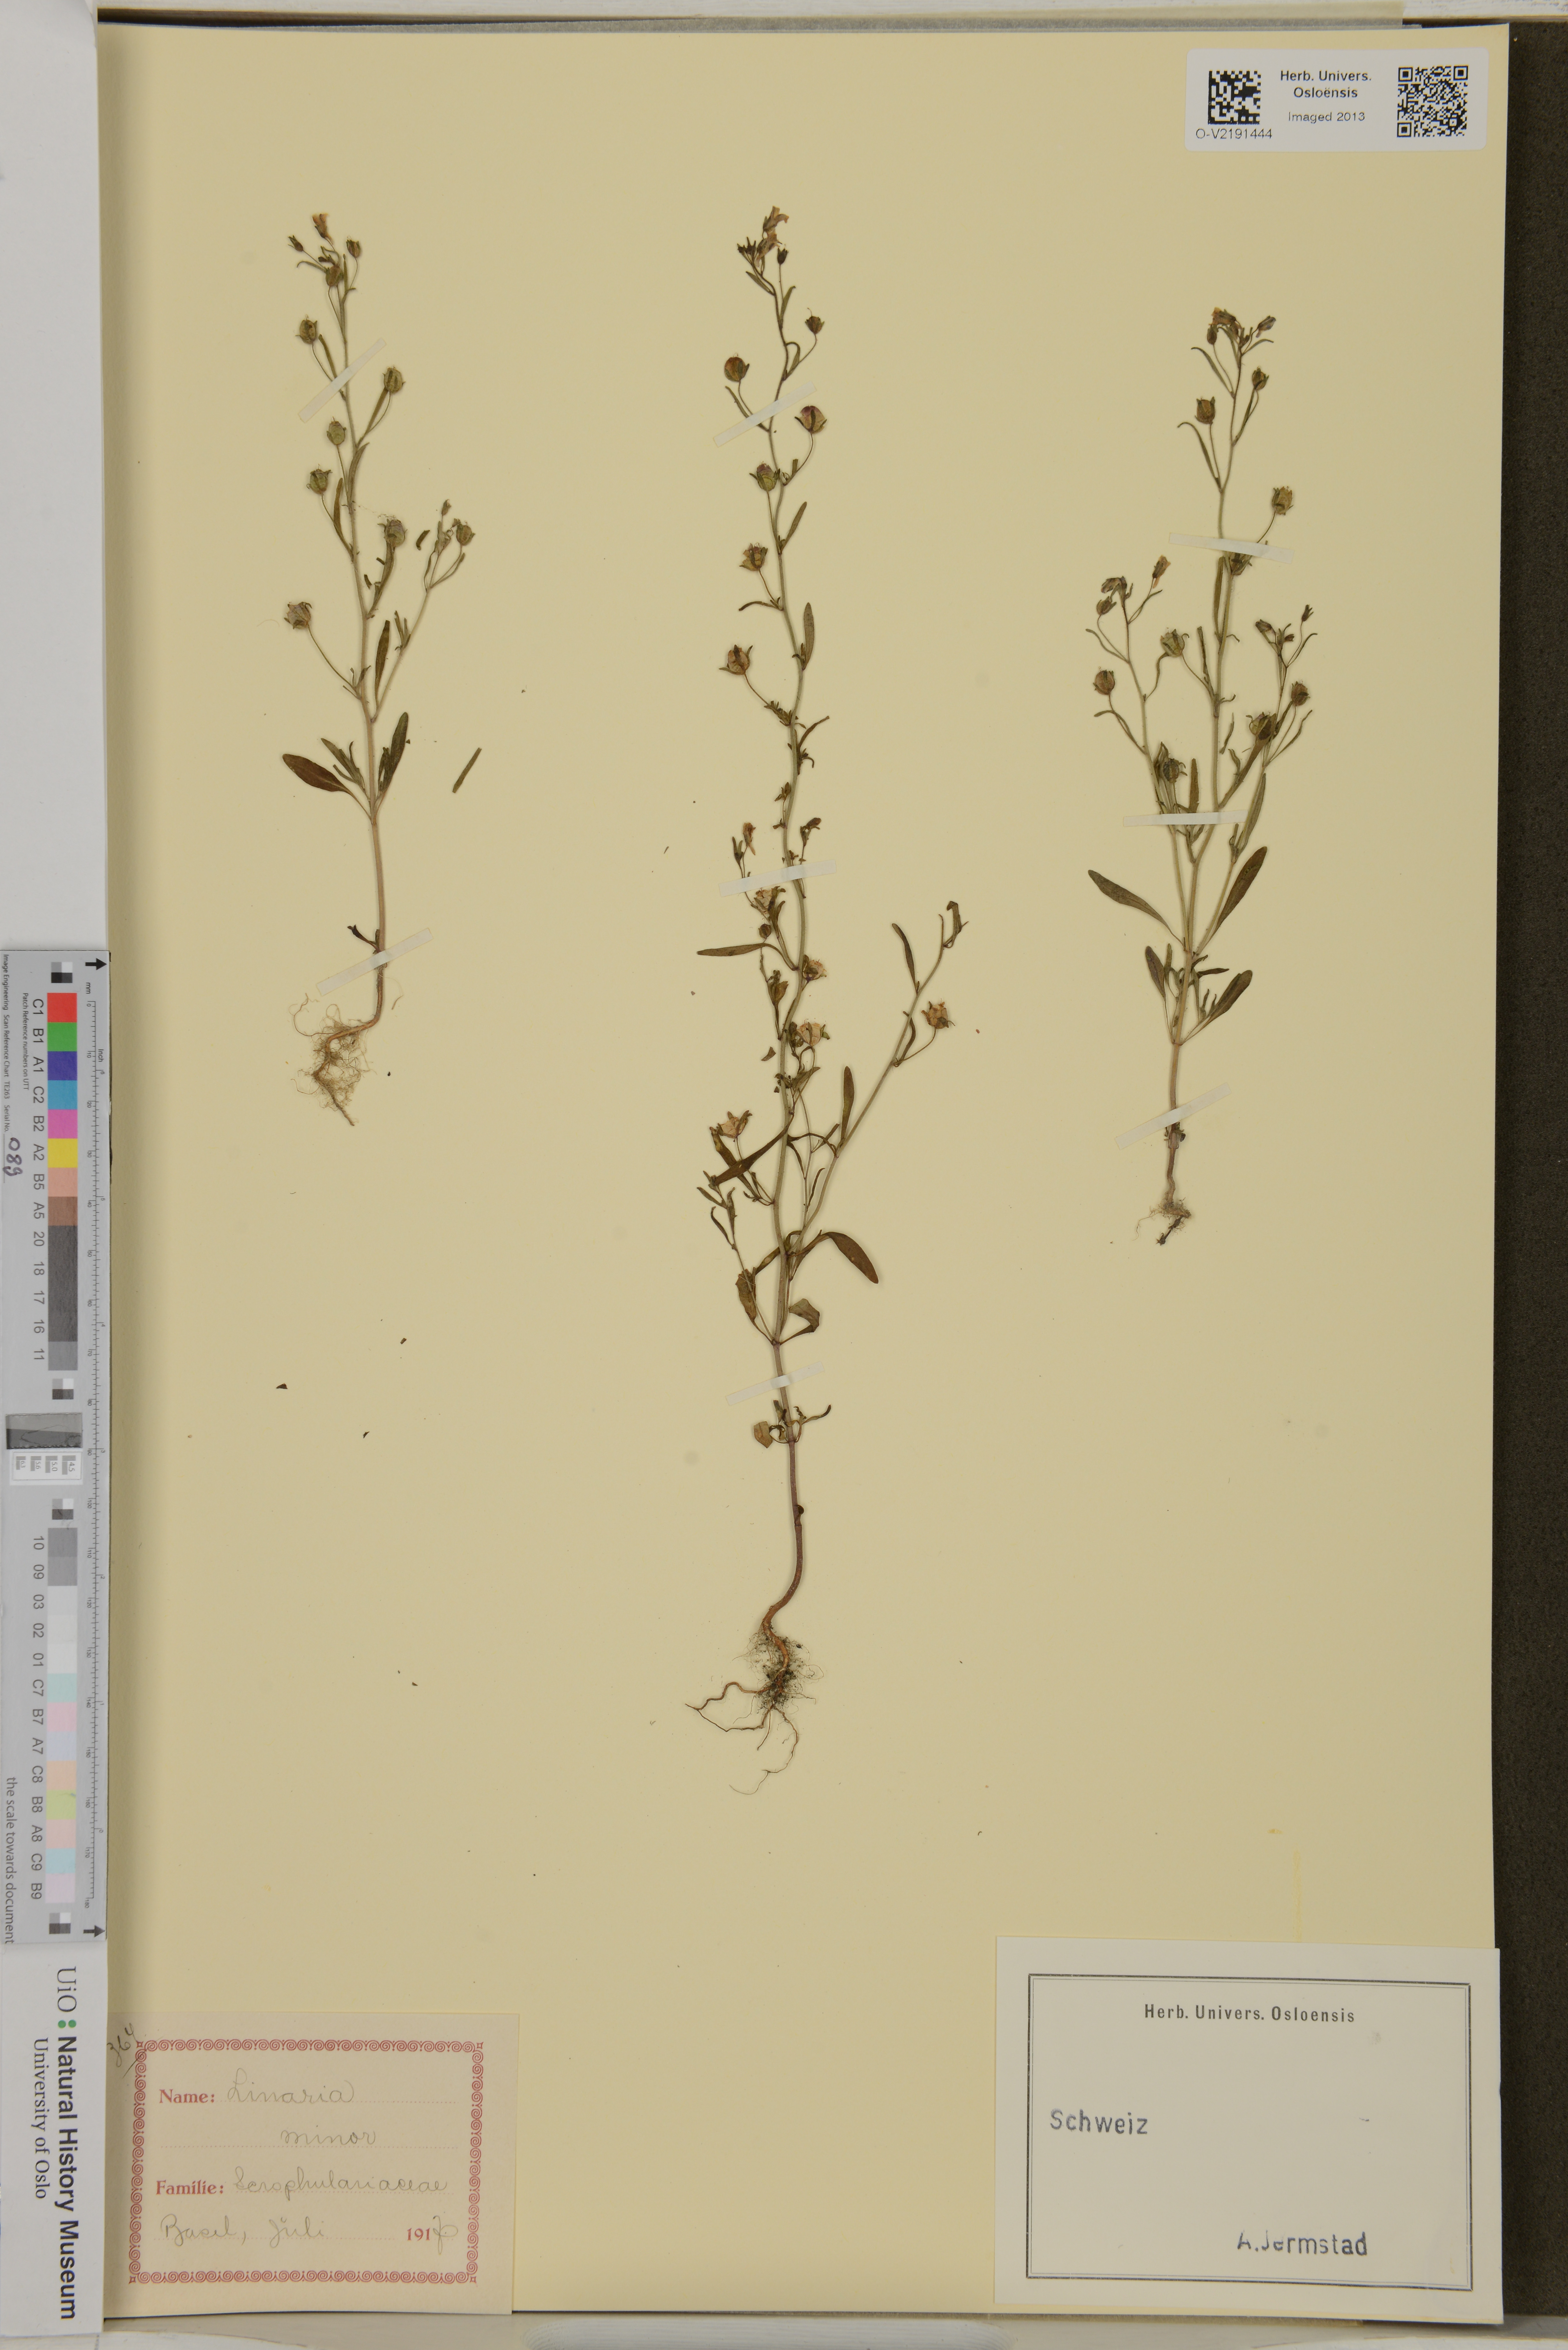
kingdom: Plantae
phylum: Tracheophyta
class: Magnoliopsida
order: Lamiales
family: Plantaginaceae
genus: Chaenorhinum
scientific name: Chaenorhinum minus
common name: Dwarf snapdragon
